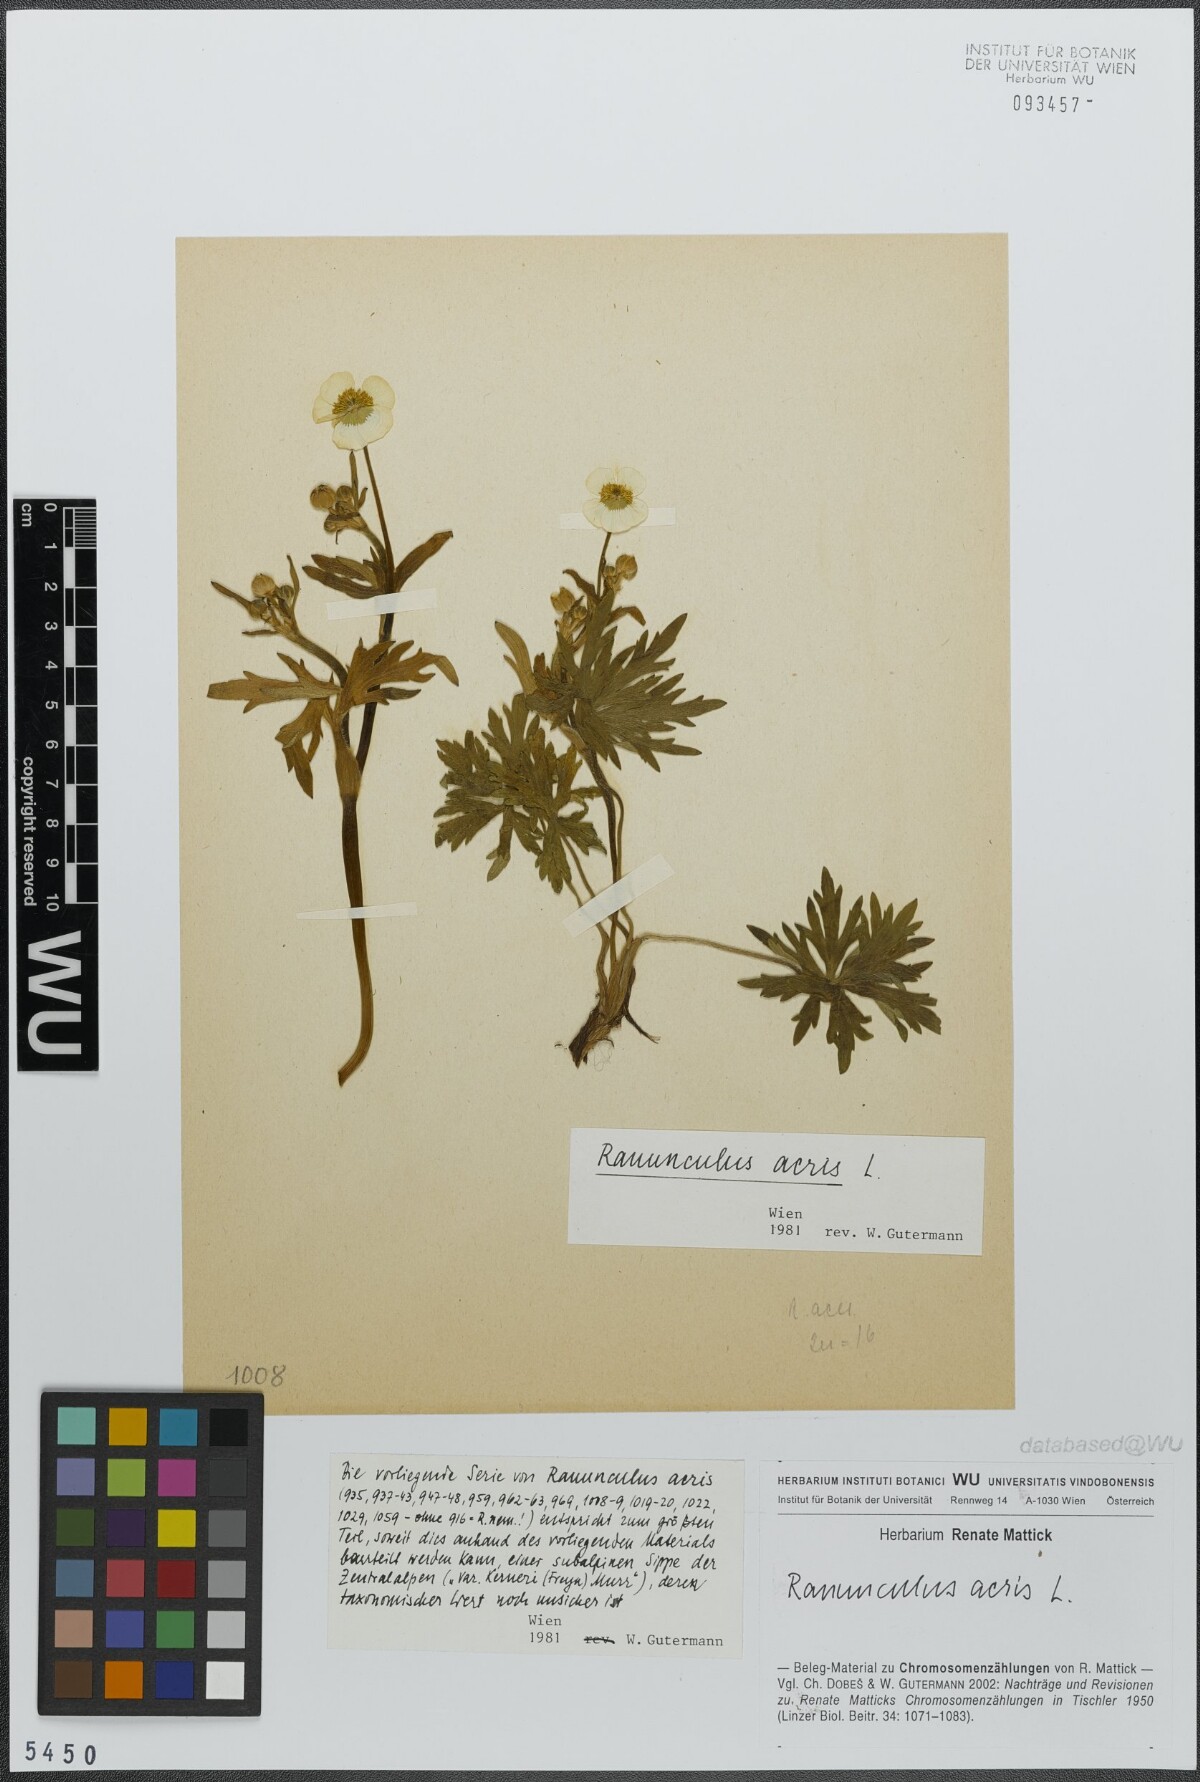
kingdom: Plantae
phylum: Tracheophyta
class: Magnoliopsida
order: Ranunculales
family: Ranunculaceae
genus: Ranunculus
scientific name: Ranunculus acris
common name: Meadow buttercup
